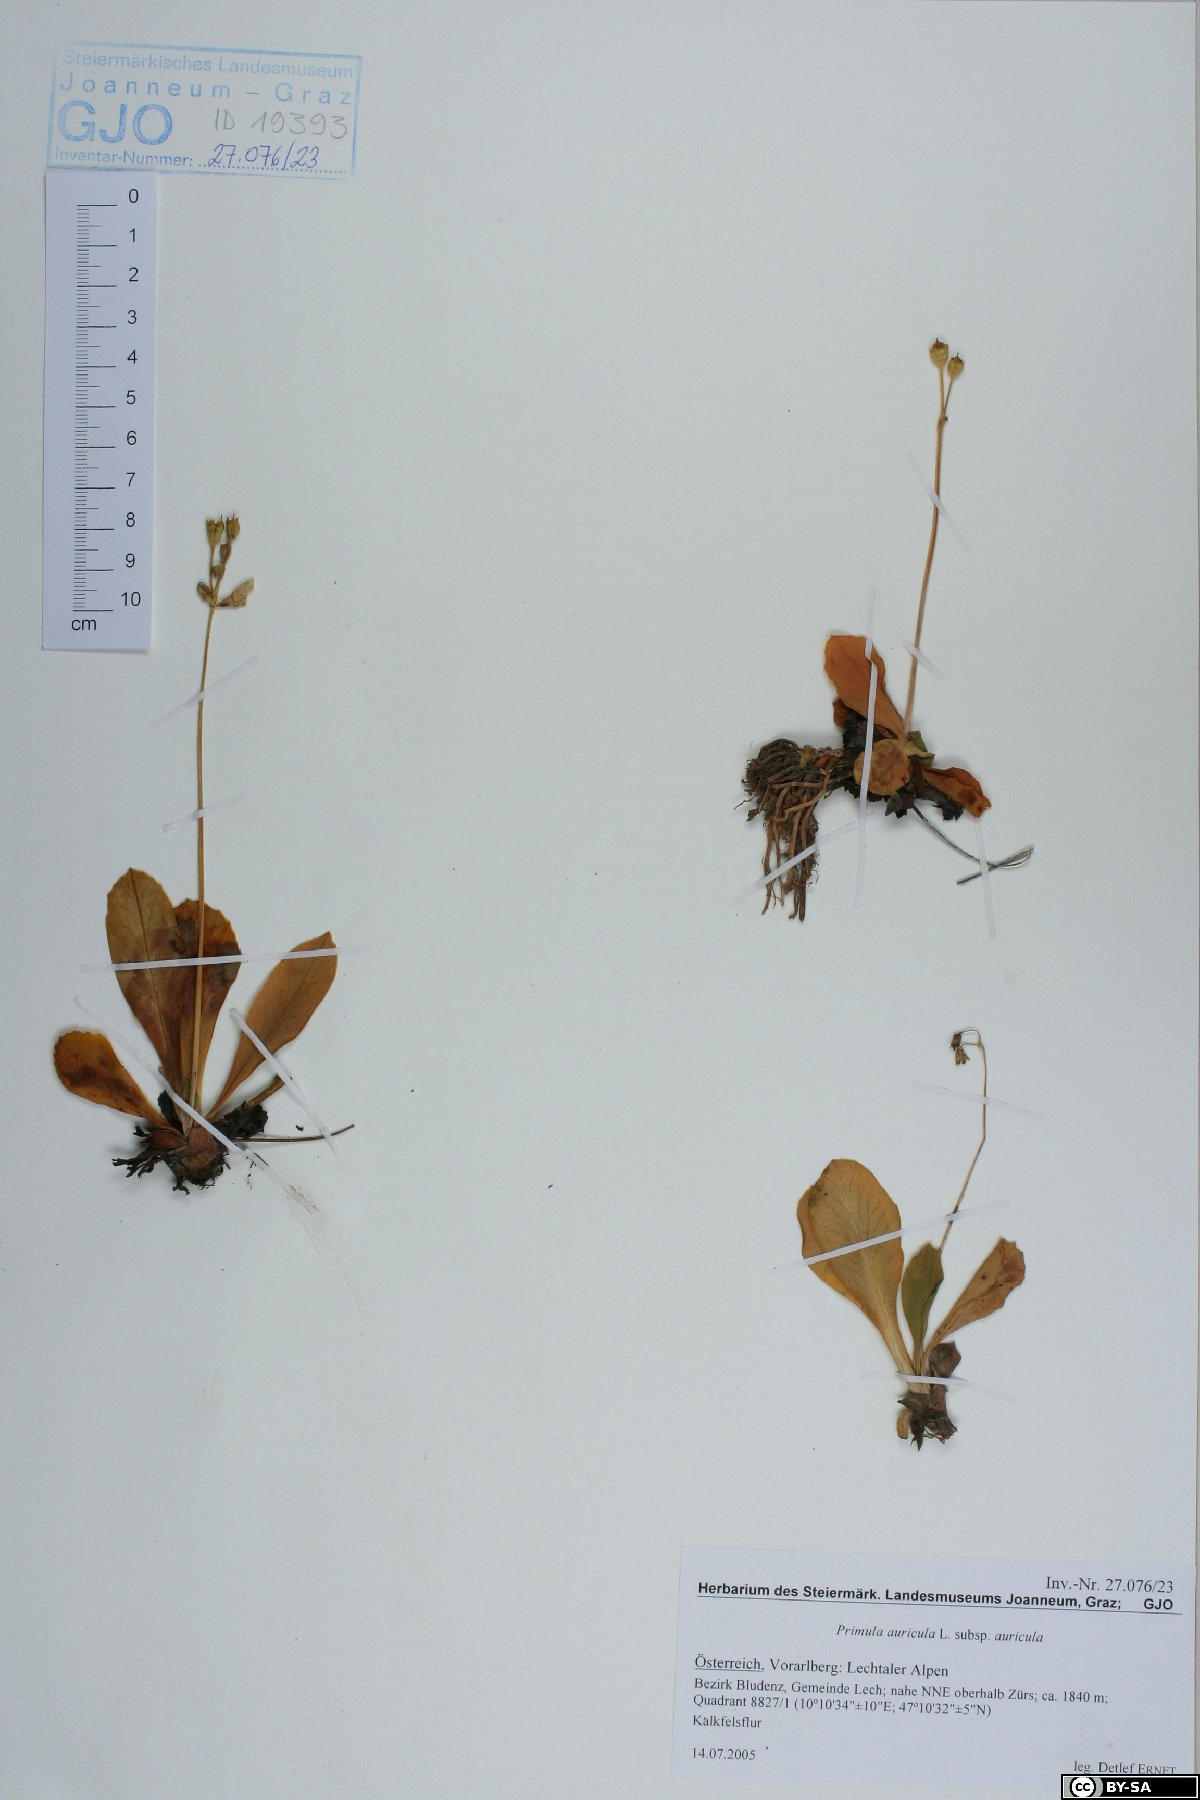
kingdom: Plantae
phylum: Tracheophyta
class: Magnoliopsida
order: Ericales
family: Primulaceae
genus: Primula
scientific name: Primula auricula
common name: Auricula
